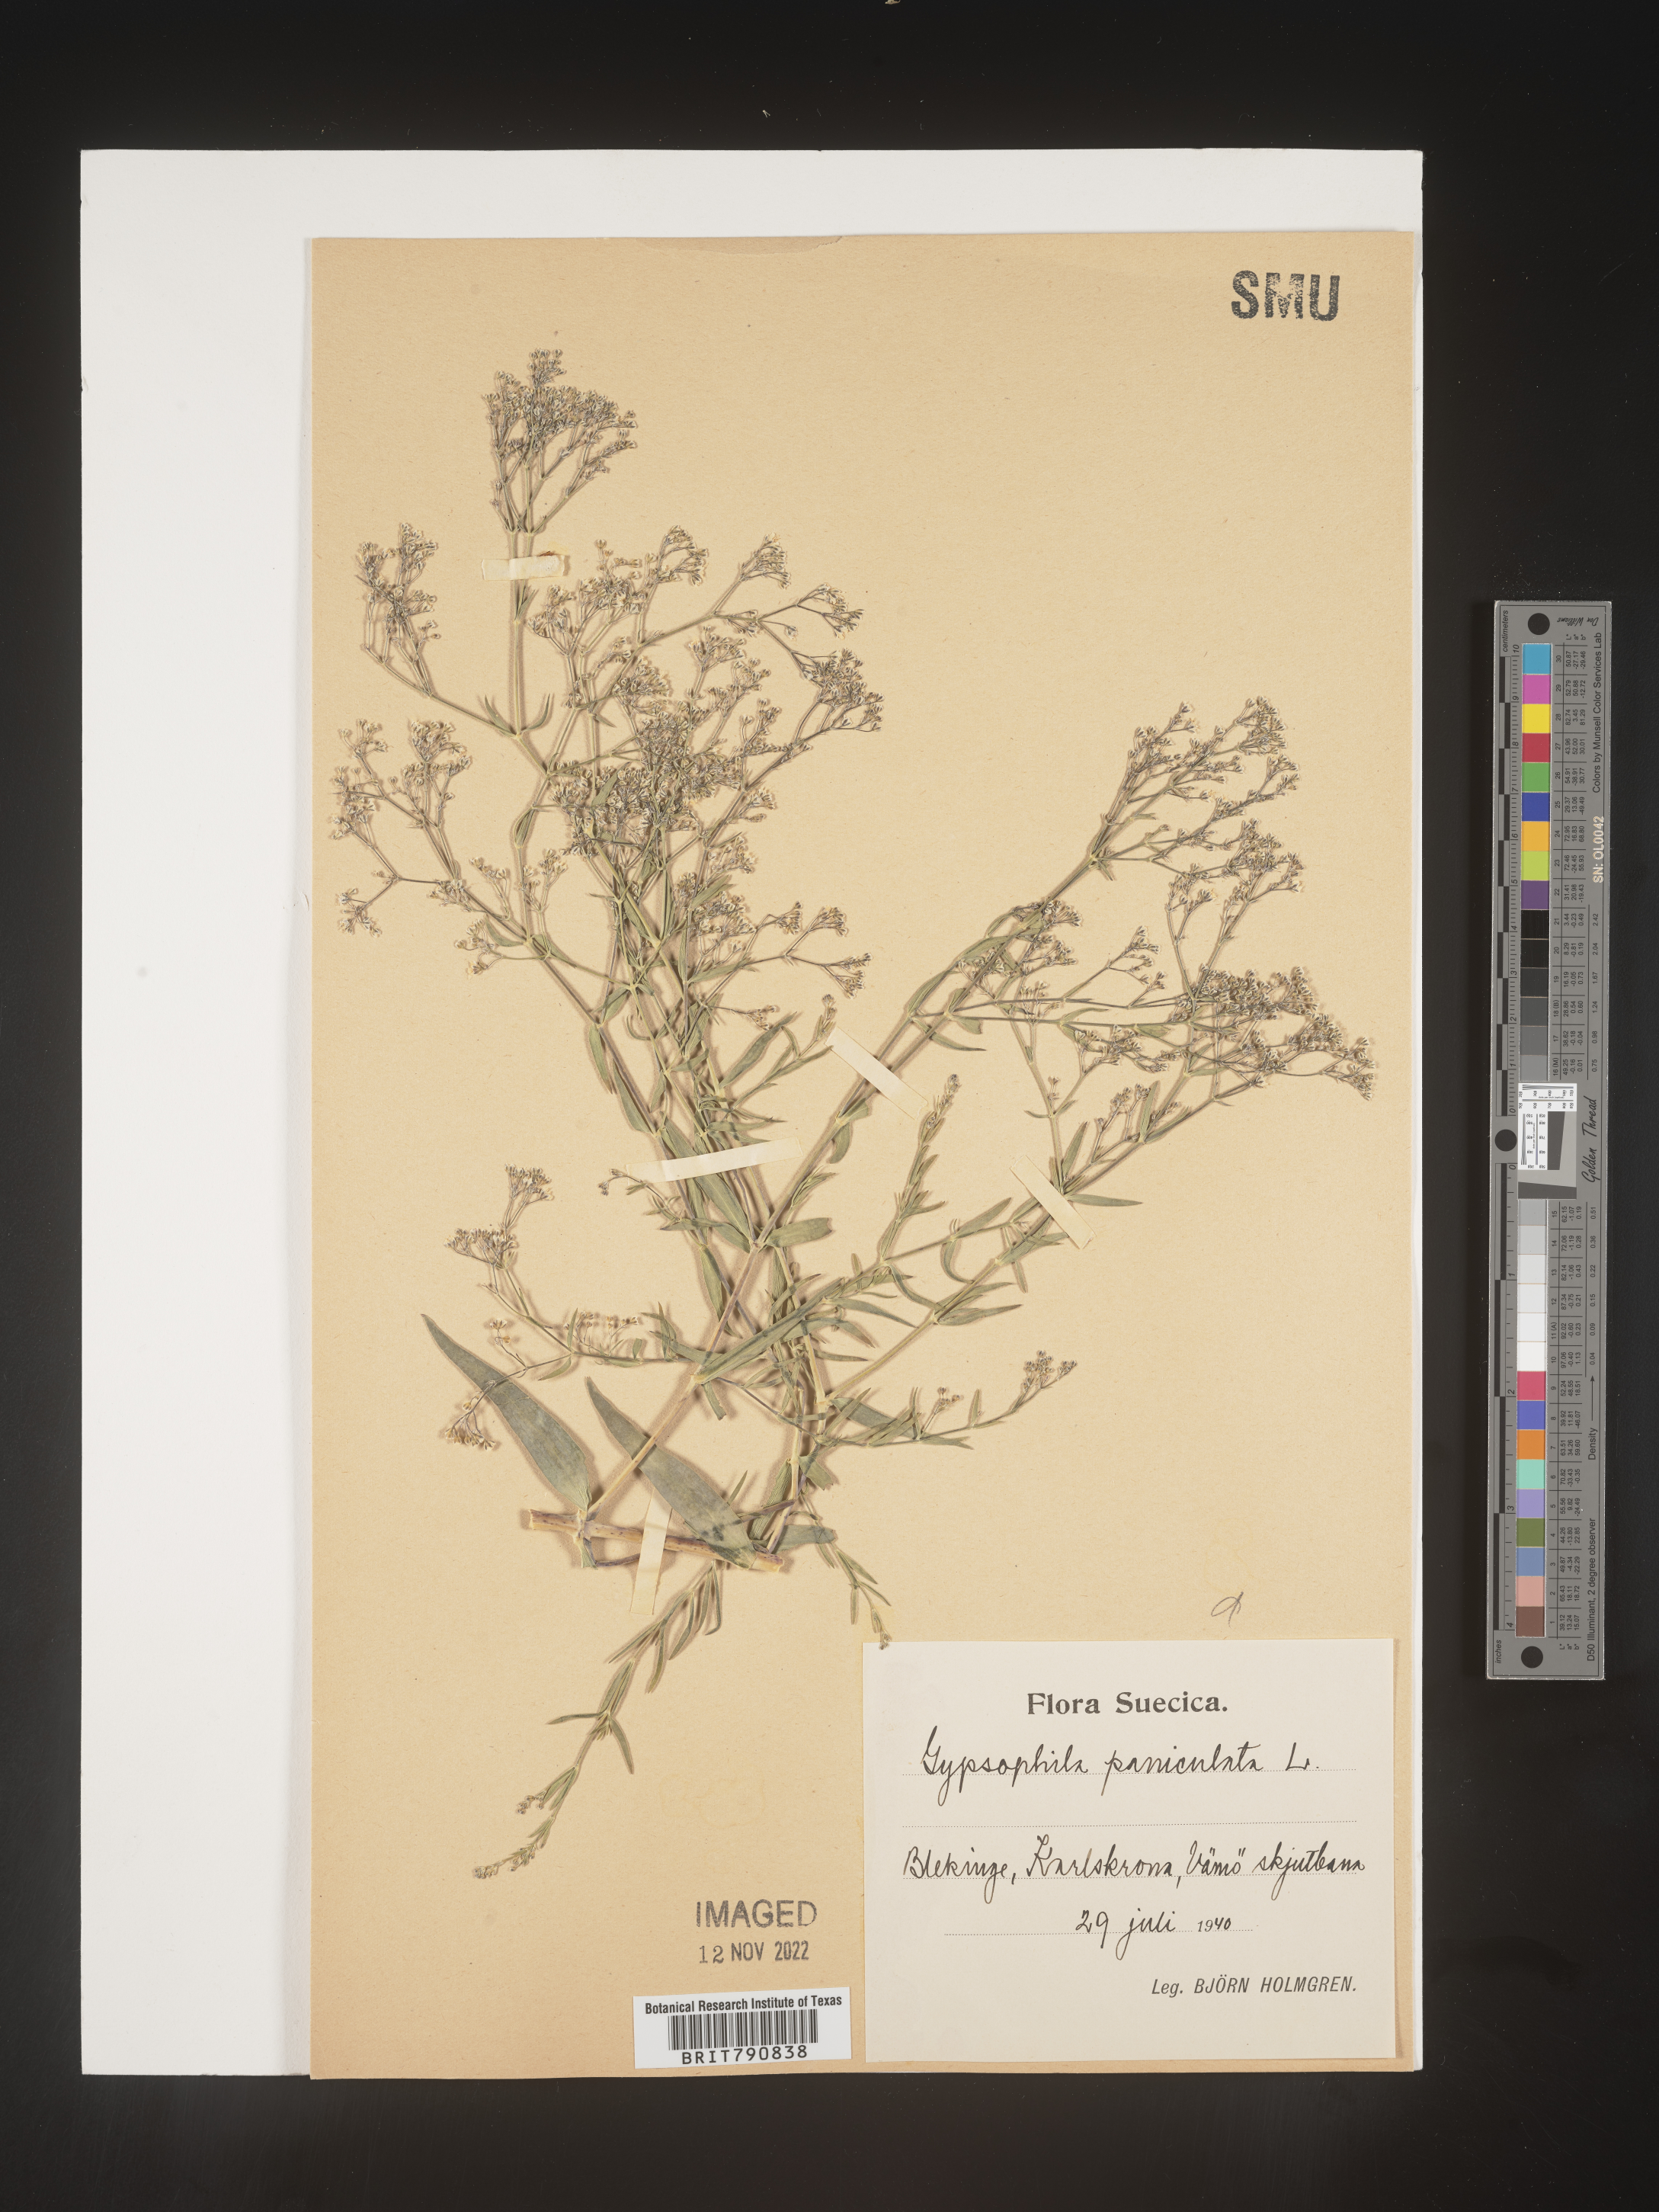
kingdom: Plantae
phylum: Tracheophyta
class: Magnoliopsida
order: Caryophyllales
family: Caryophyllaceae
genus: Gypsophila
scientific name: Gypsophila
